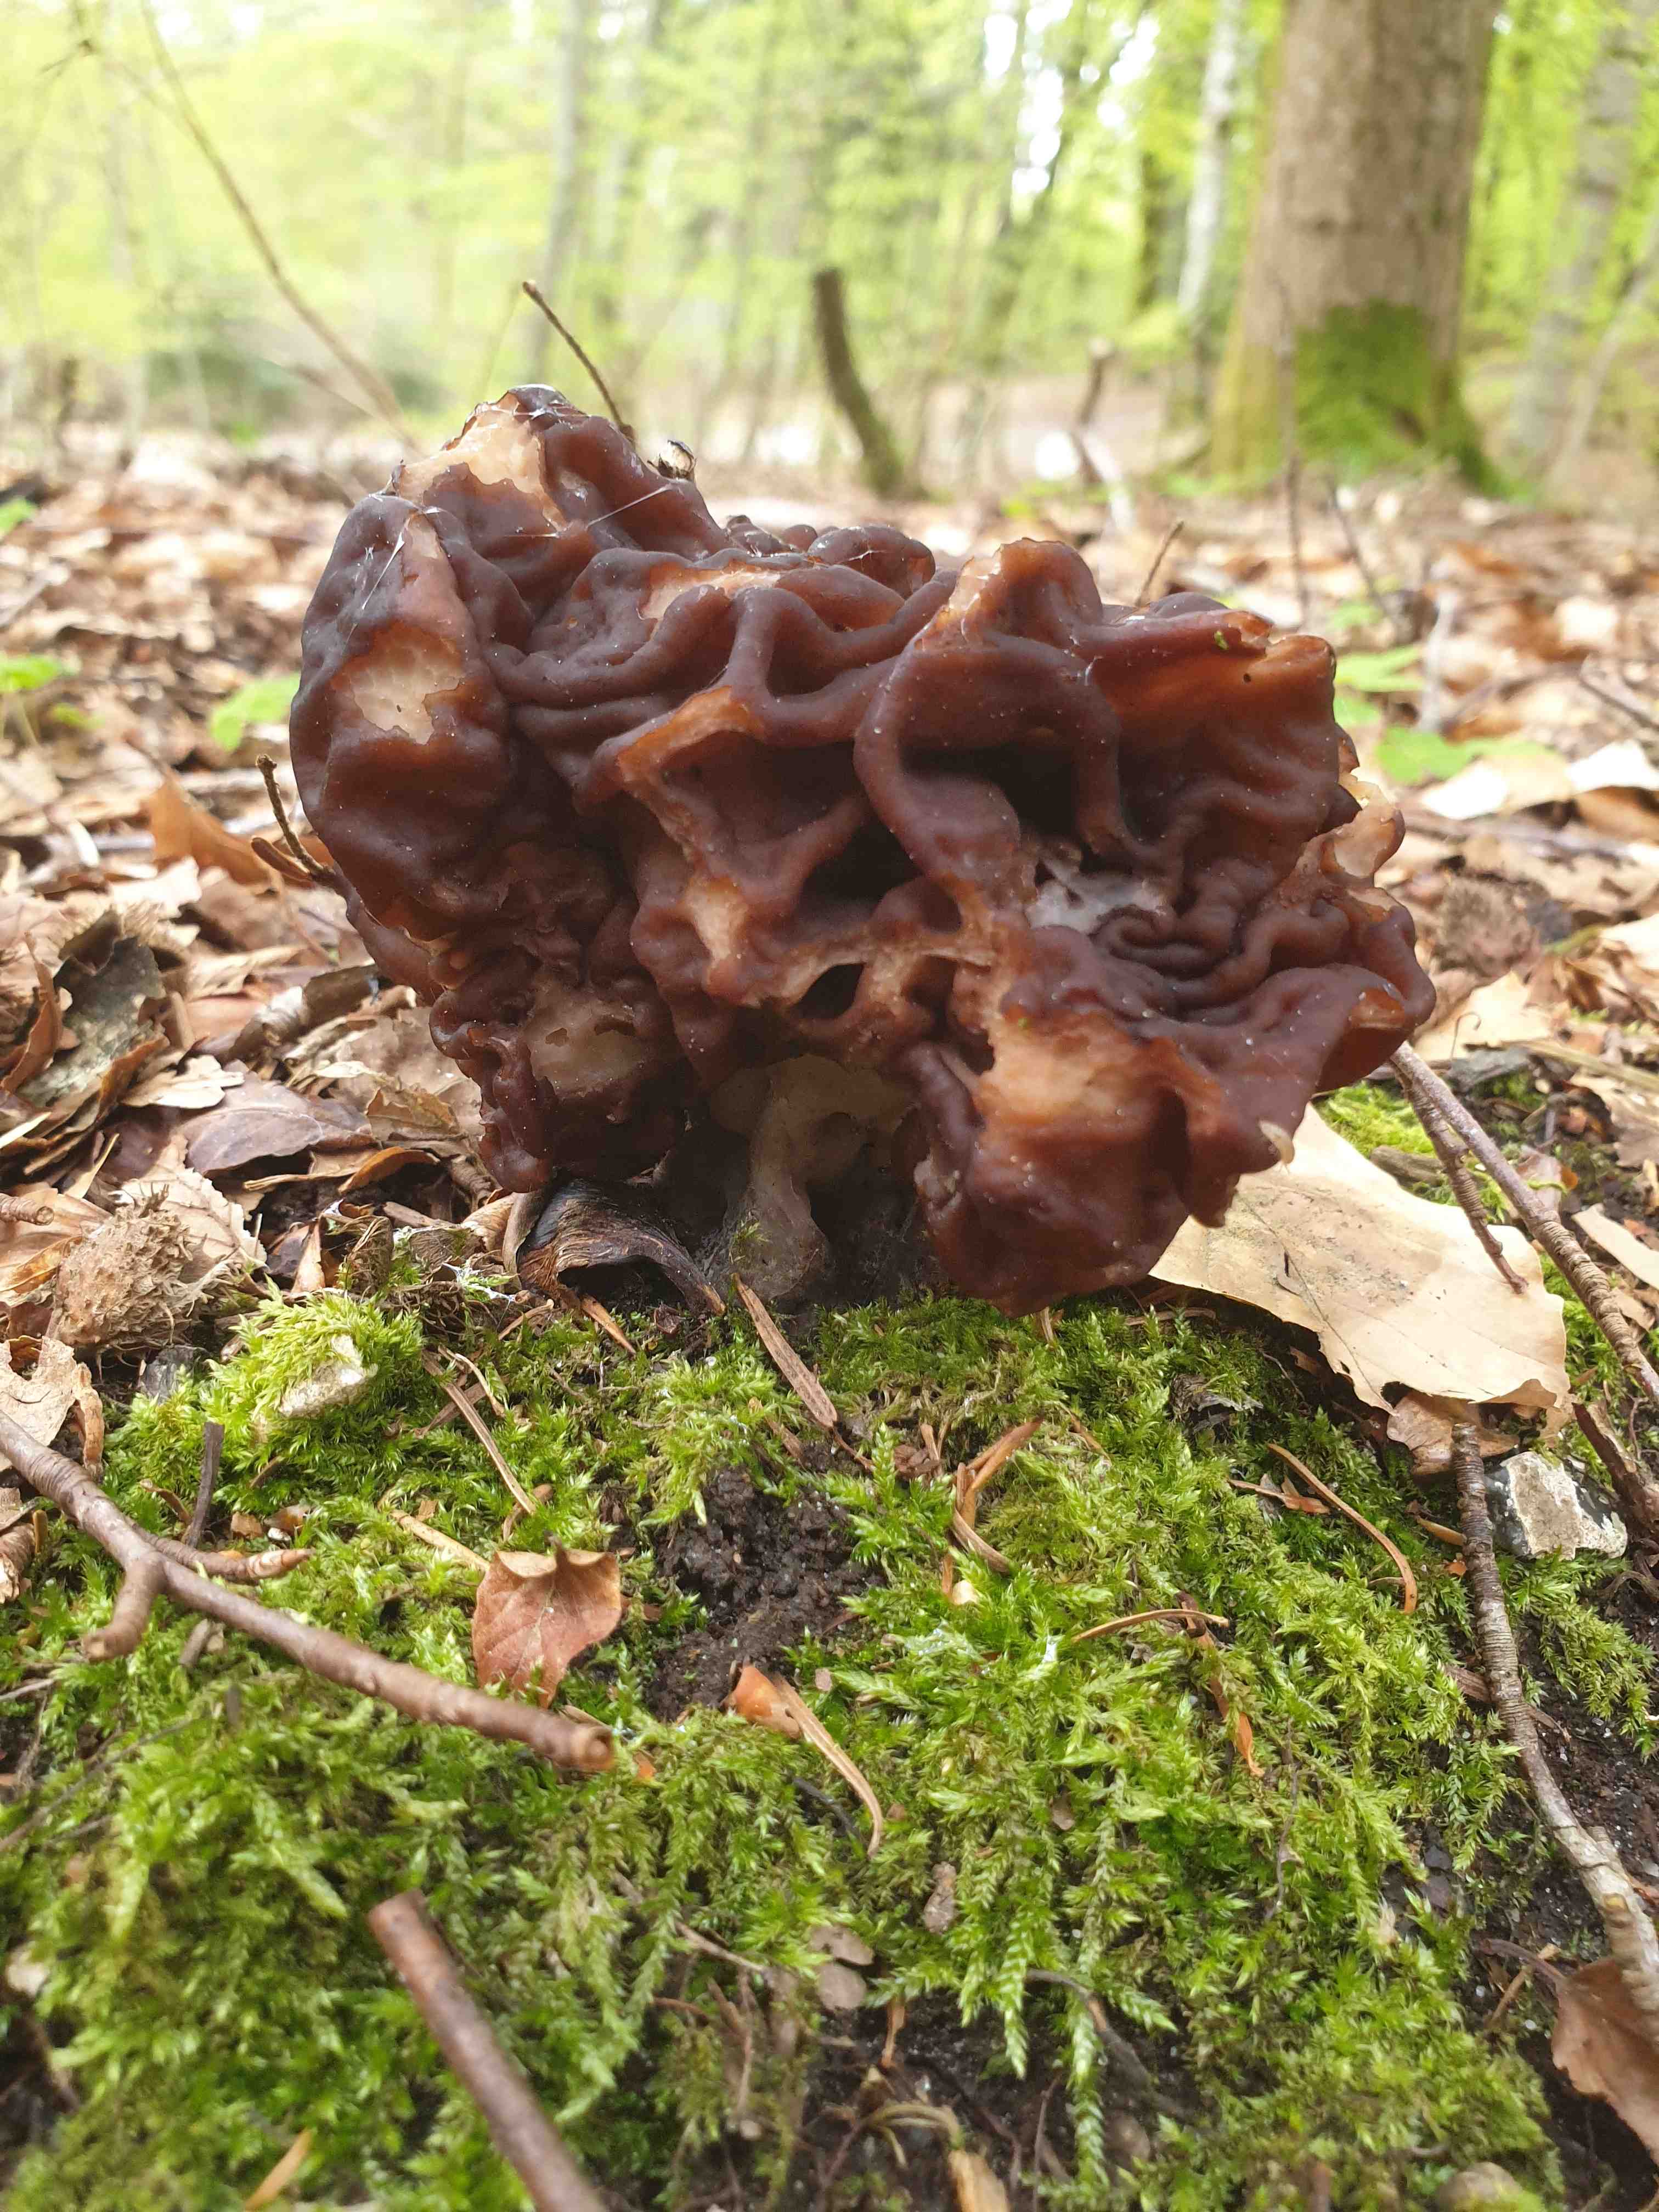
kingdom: Fungi
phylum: Ascomycota
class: Pezizomycetes
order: Pezizales
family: Discinaceae
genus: Gyromitra
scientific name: Gyromitra
